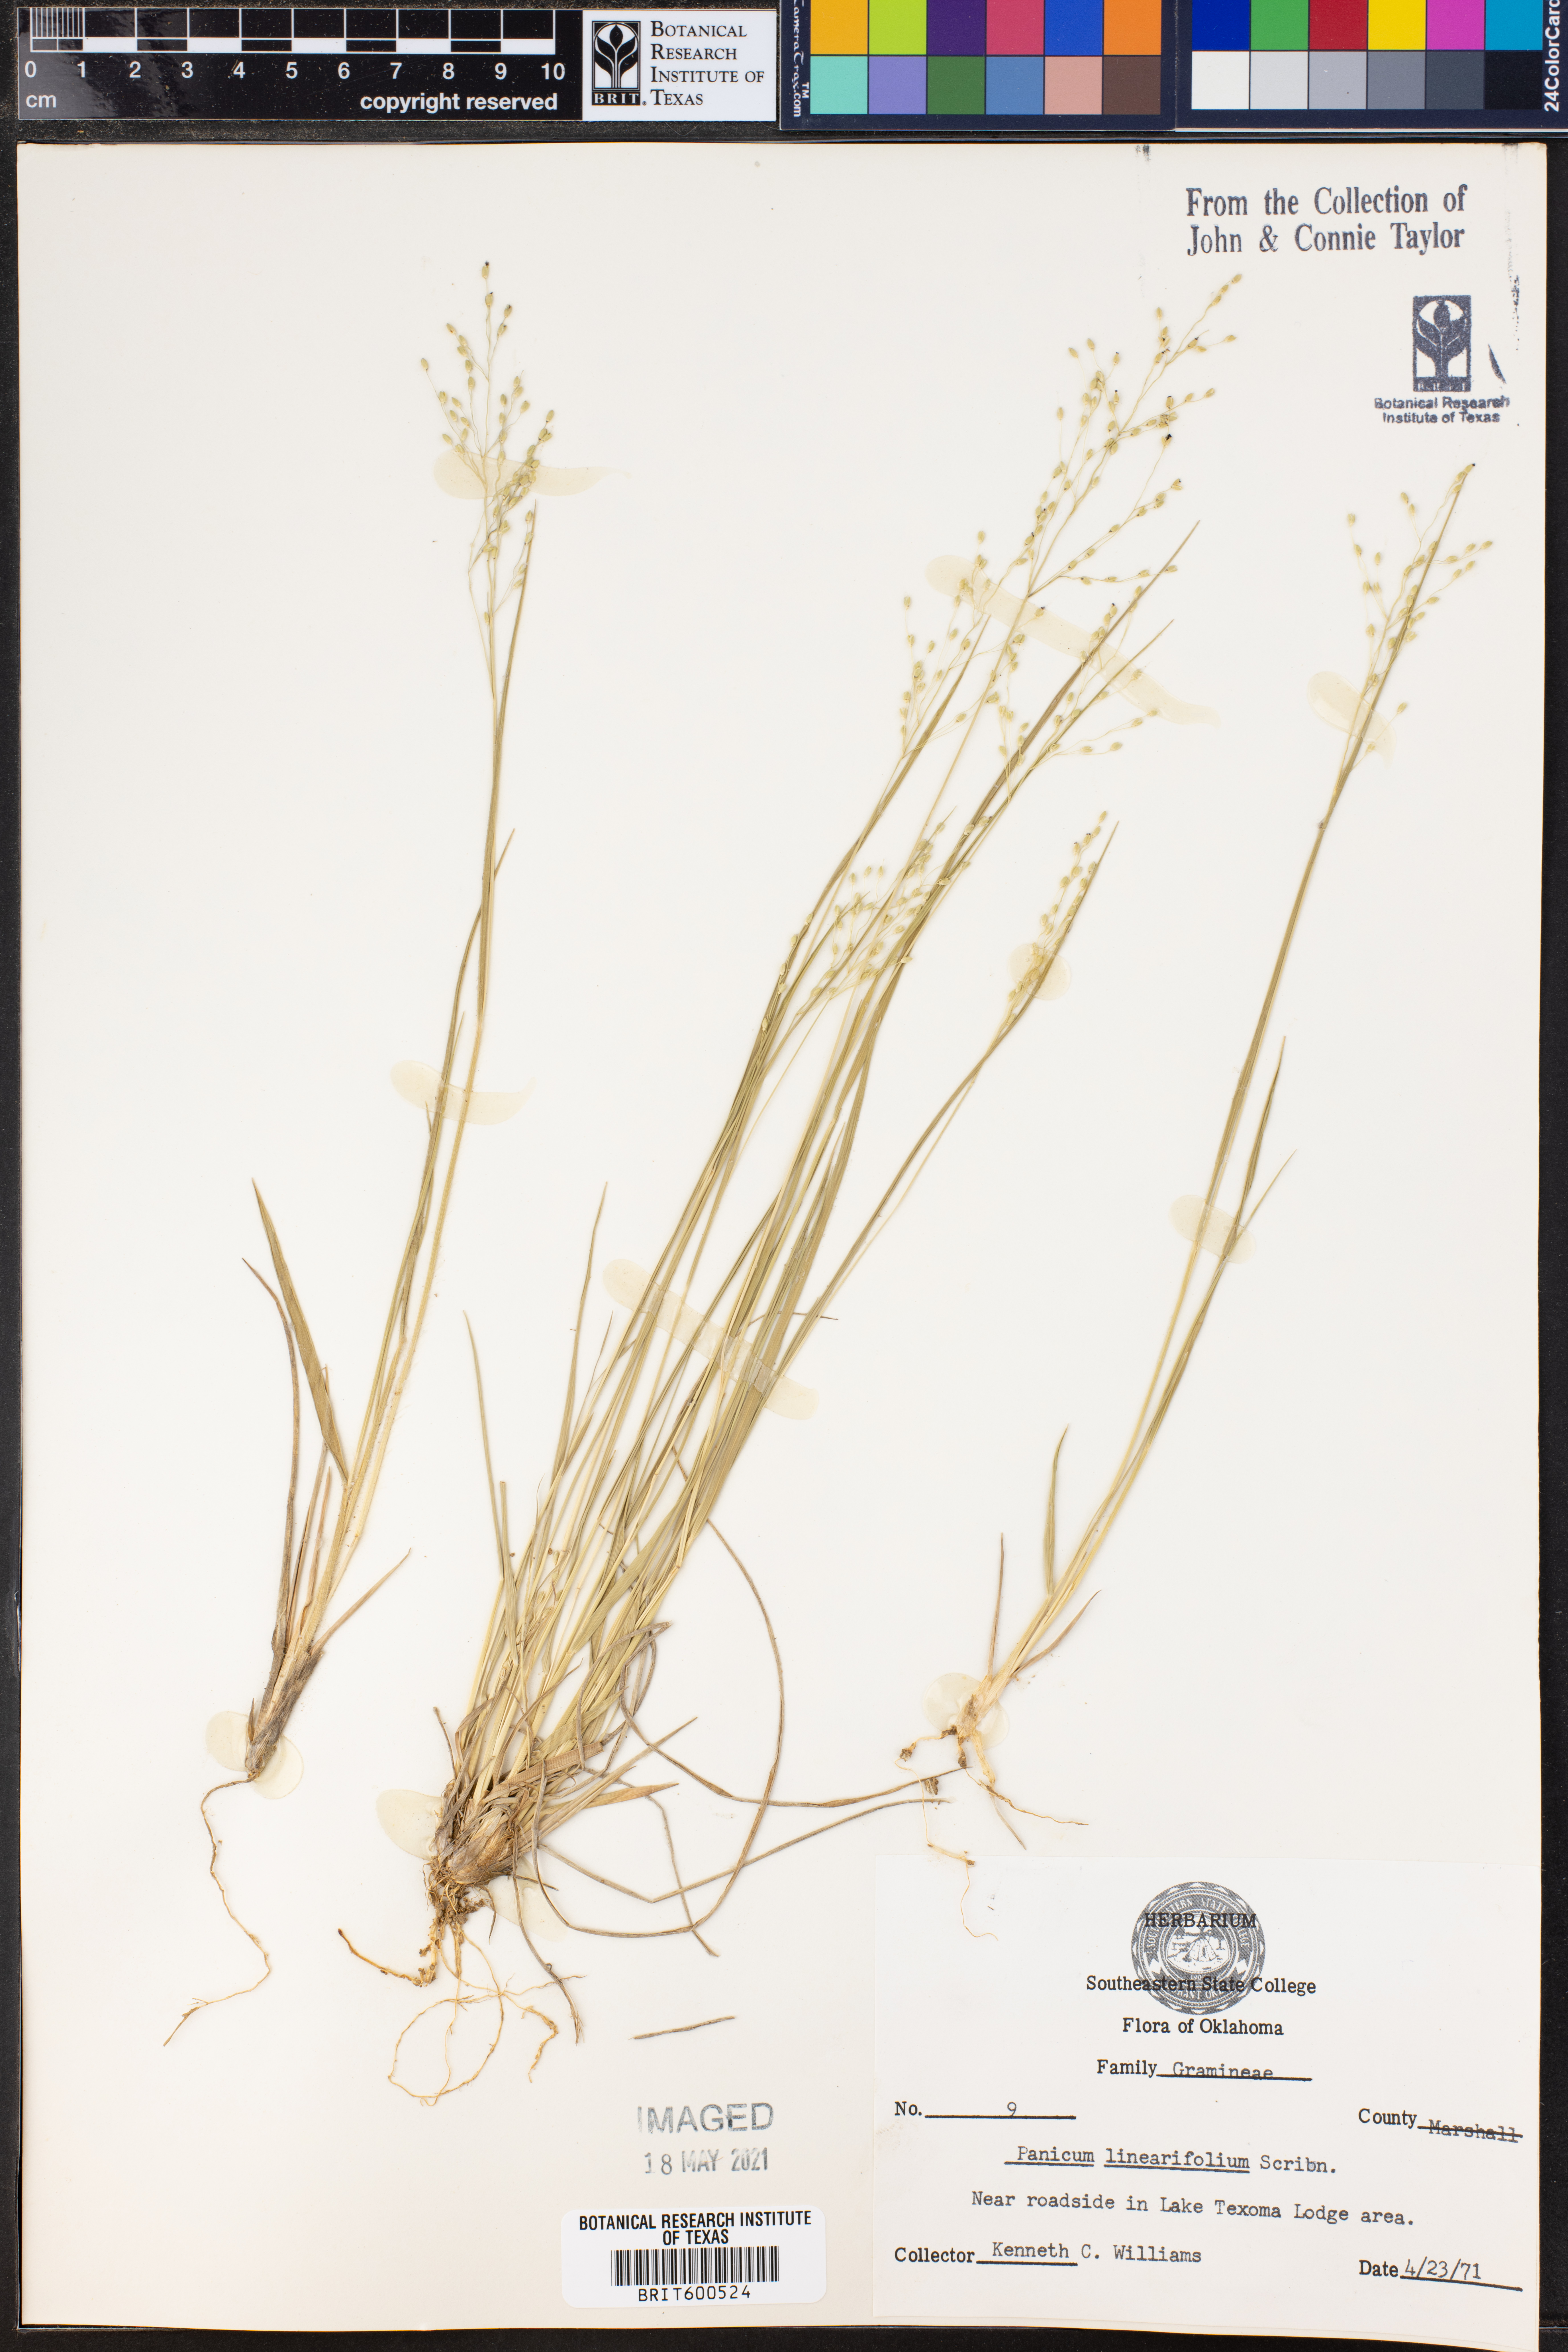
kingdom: Plantae
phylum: Tracheophyta
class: Liliopsida
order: Poales
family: Poaceae
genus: Dichanthelium
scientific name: Dichanthelium linearifolium
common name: Linear-leaved panicgrass
